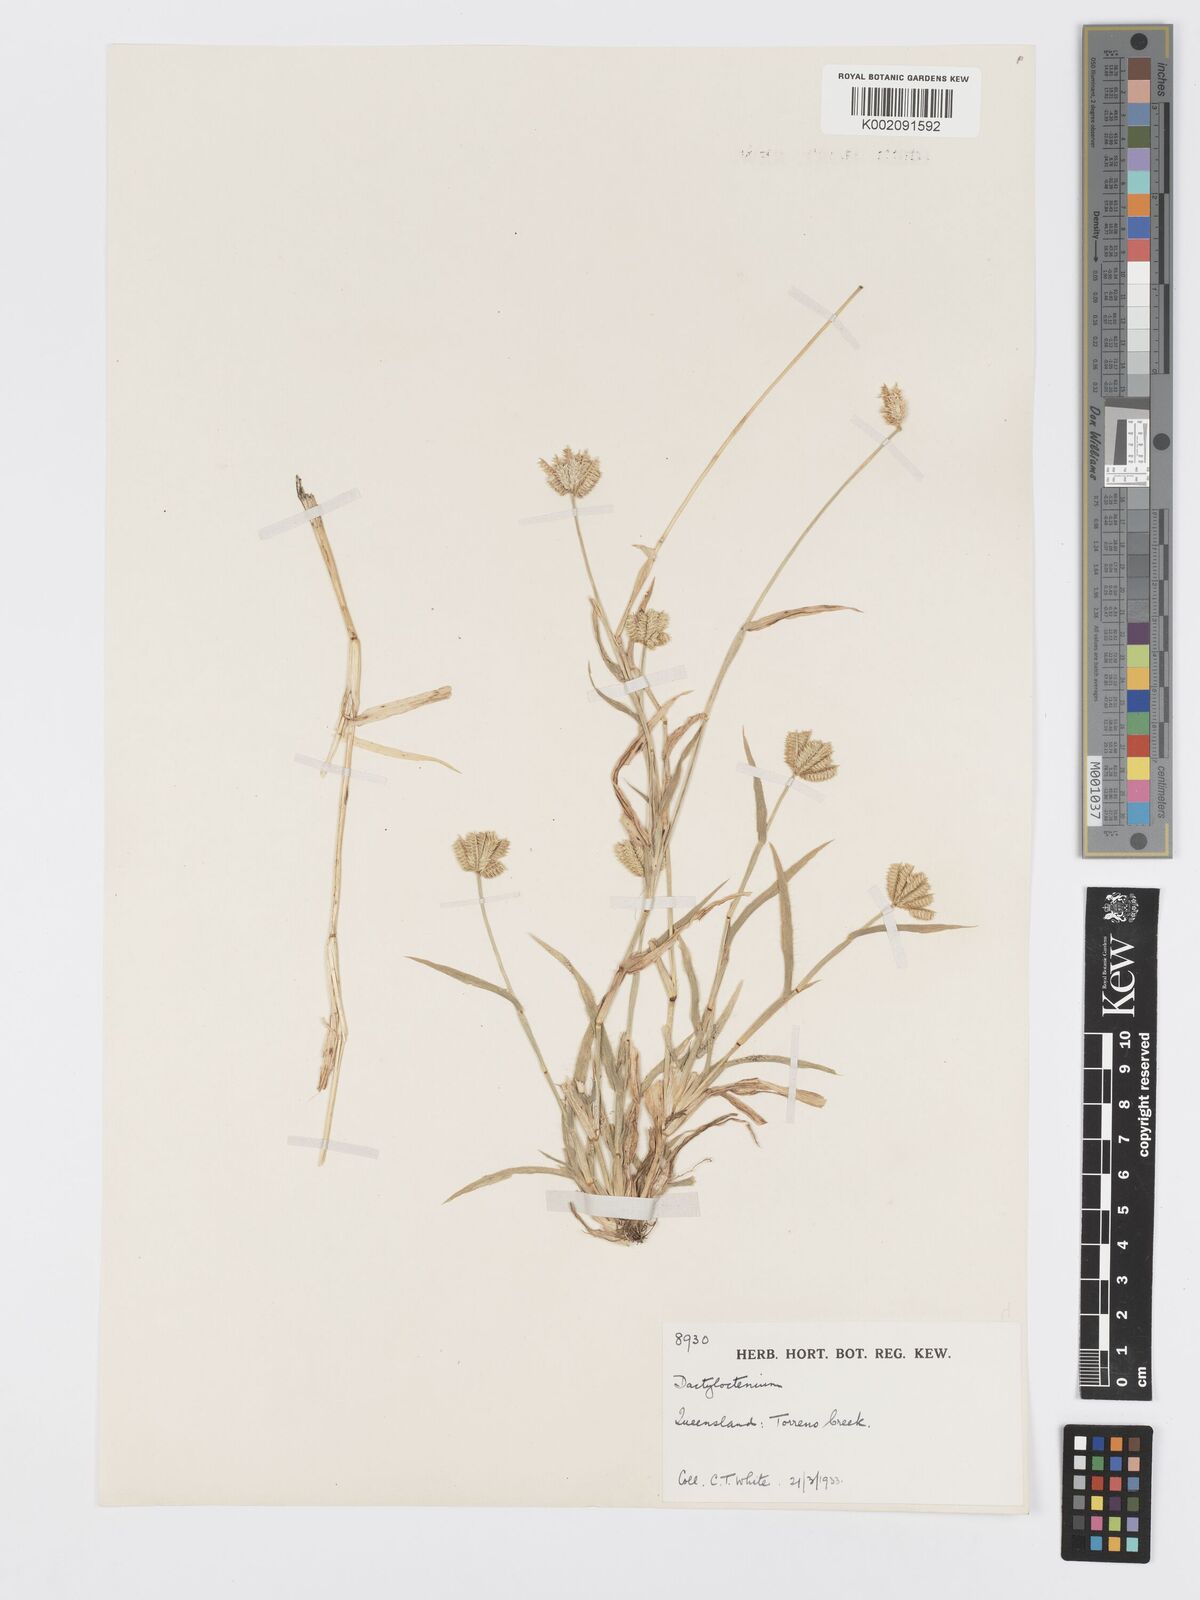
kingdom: Plantae
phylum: Tracheophyta
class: Liliopsida
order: Poales
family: Poaceae
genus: Dactyloctenium
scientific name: Dactyloctenium radulans
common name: Button-grass
